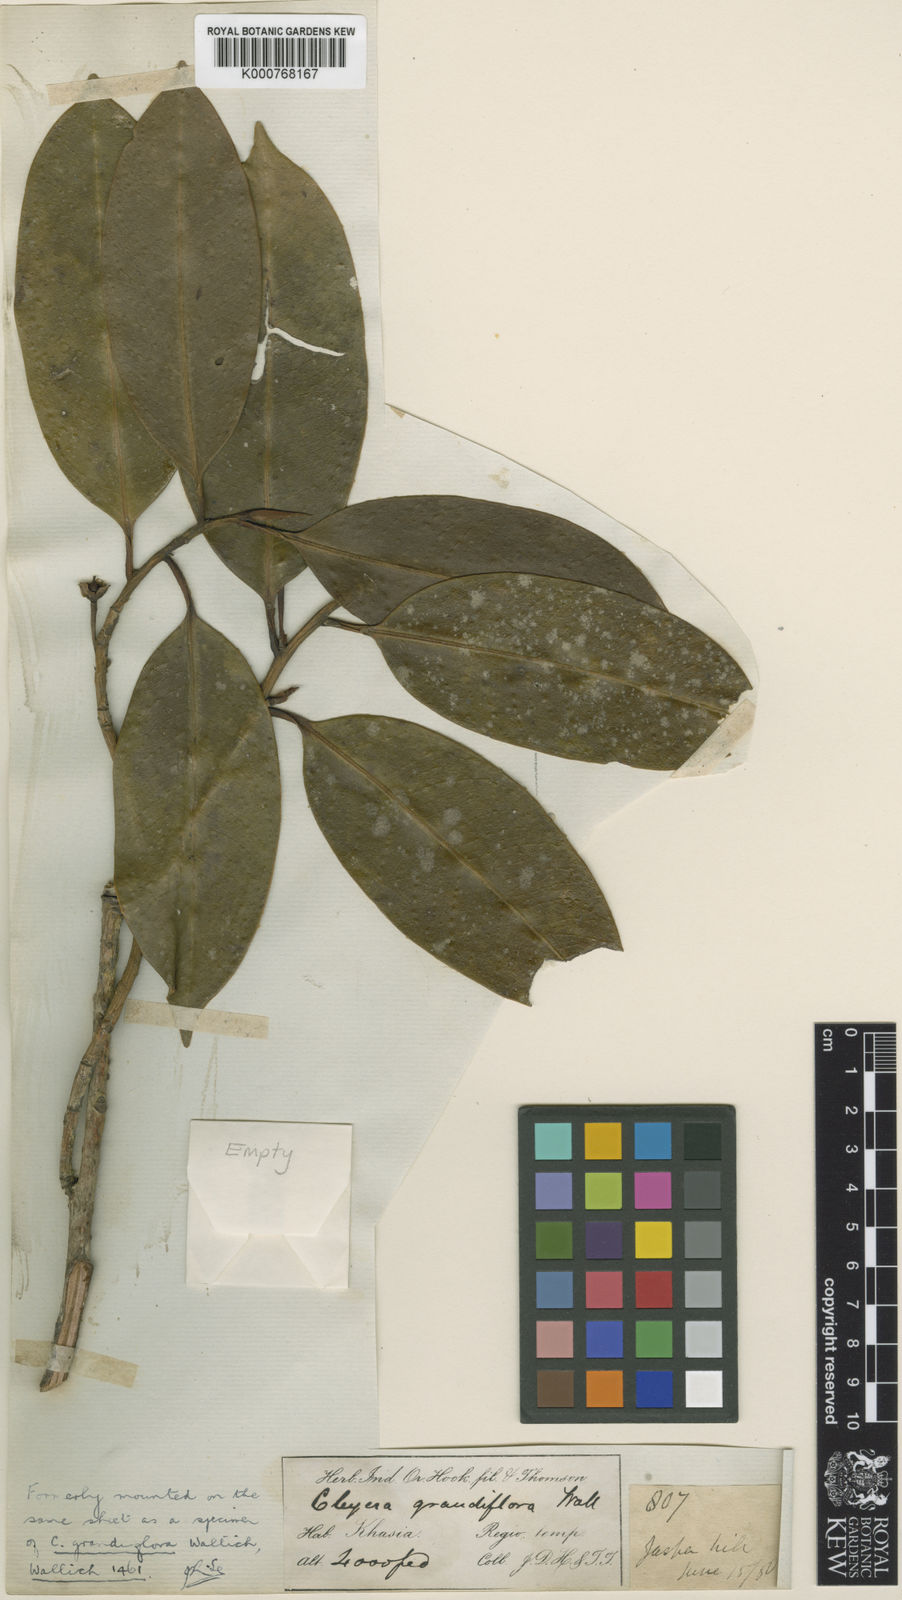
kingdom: Plantae
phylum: Tracheophyta
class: Magnoliopsida
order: Ericales
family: Pentaphylacaceae
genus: Cleyera
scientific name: Cleyera
